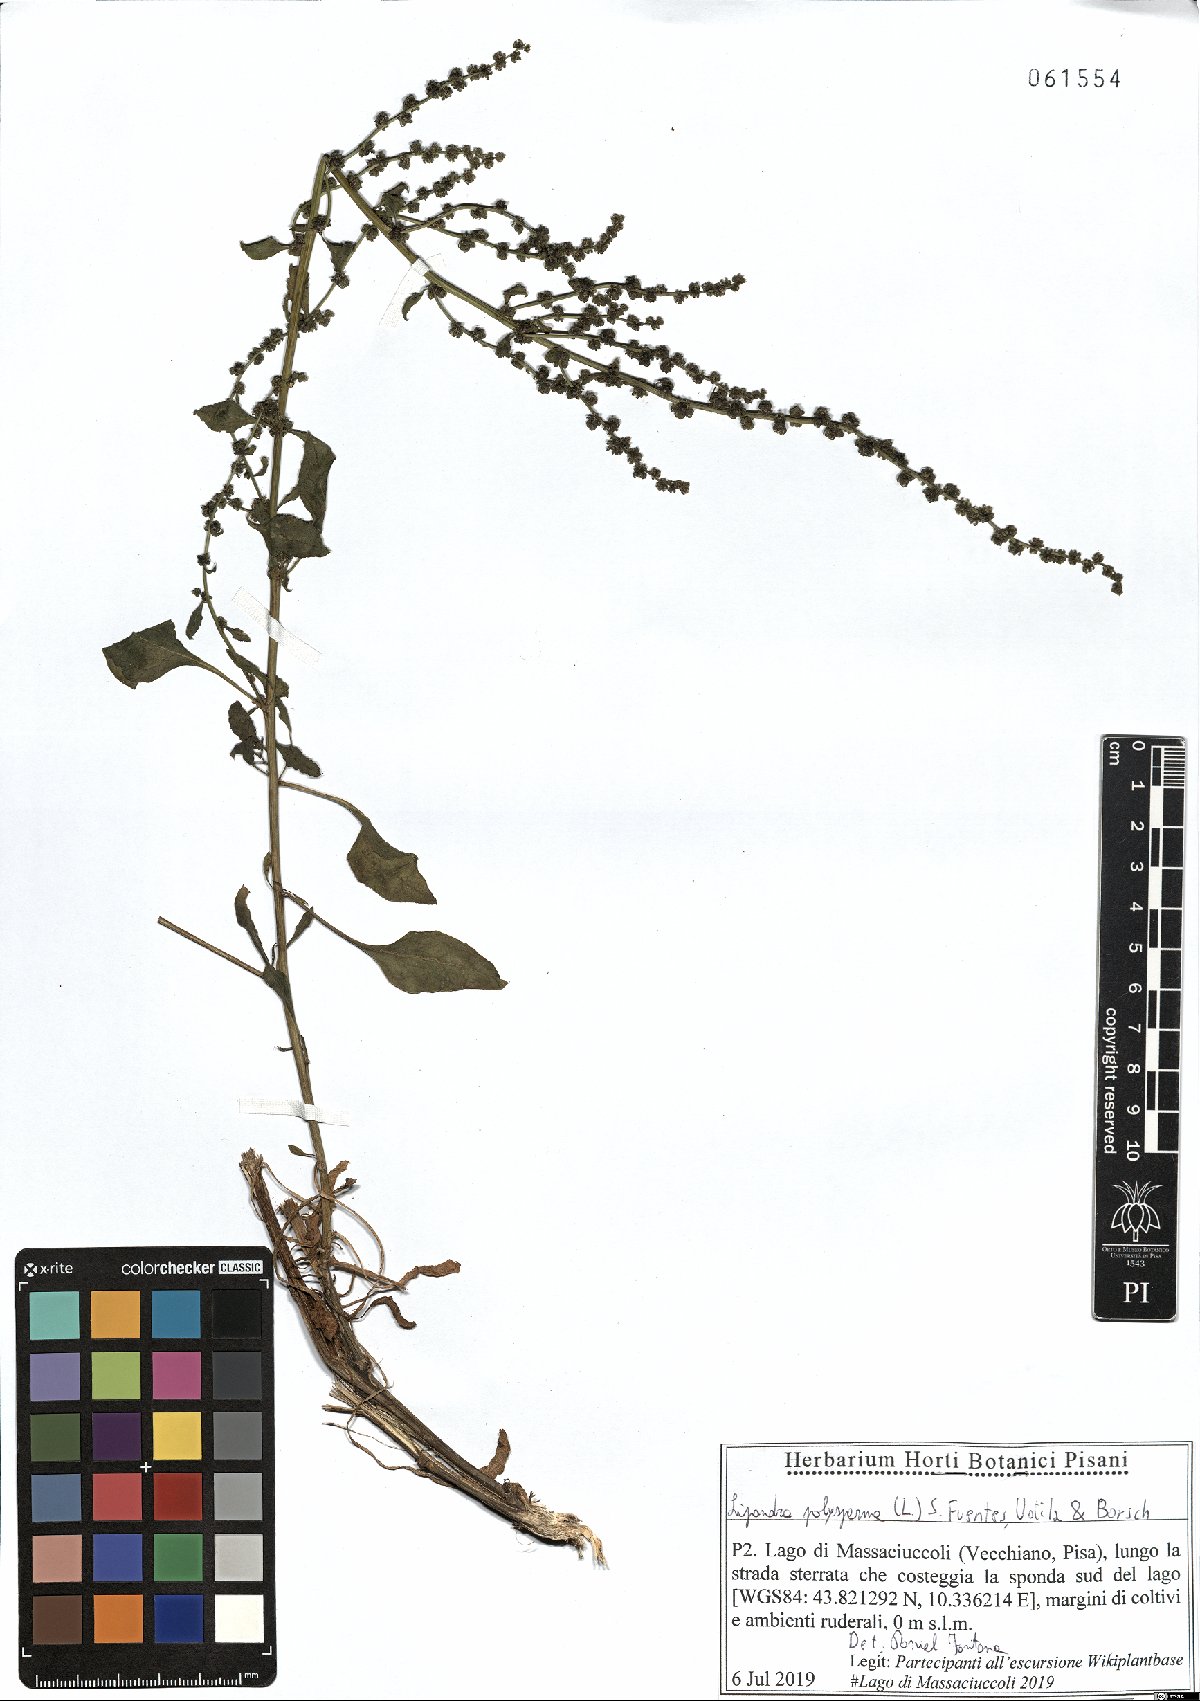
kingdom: Plantae
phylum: Tracheophyta
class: Magnoliopsida
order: Caryophyllales
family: Amaranthaceae
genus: Lipandra
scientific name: Lipandra polysperma
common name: Many-seed goosefoot
